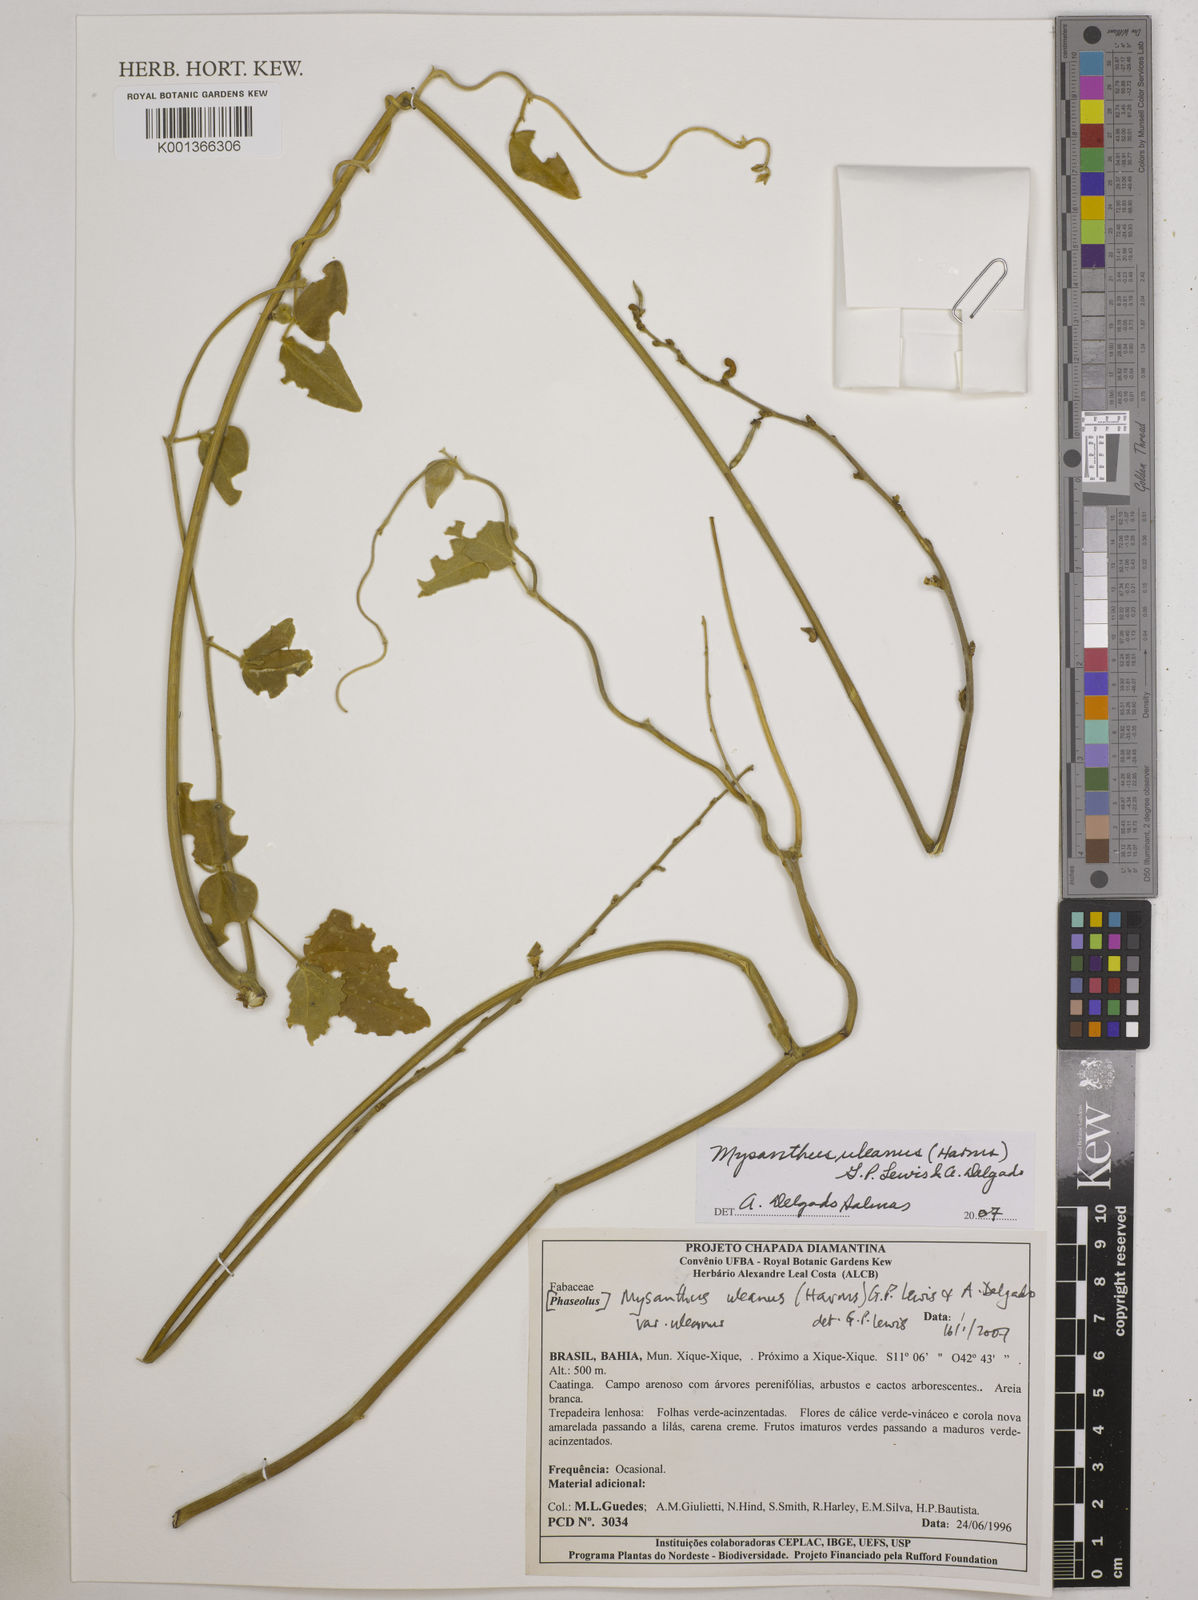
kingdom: Plantae
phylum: Tracheophyta
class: Magnoliopsida
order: Fabales
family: Fabaceae
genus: Mysanthus
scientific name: Mysanthus uleanus
